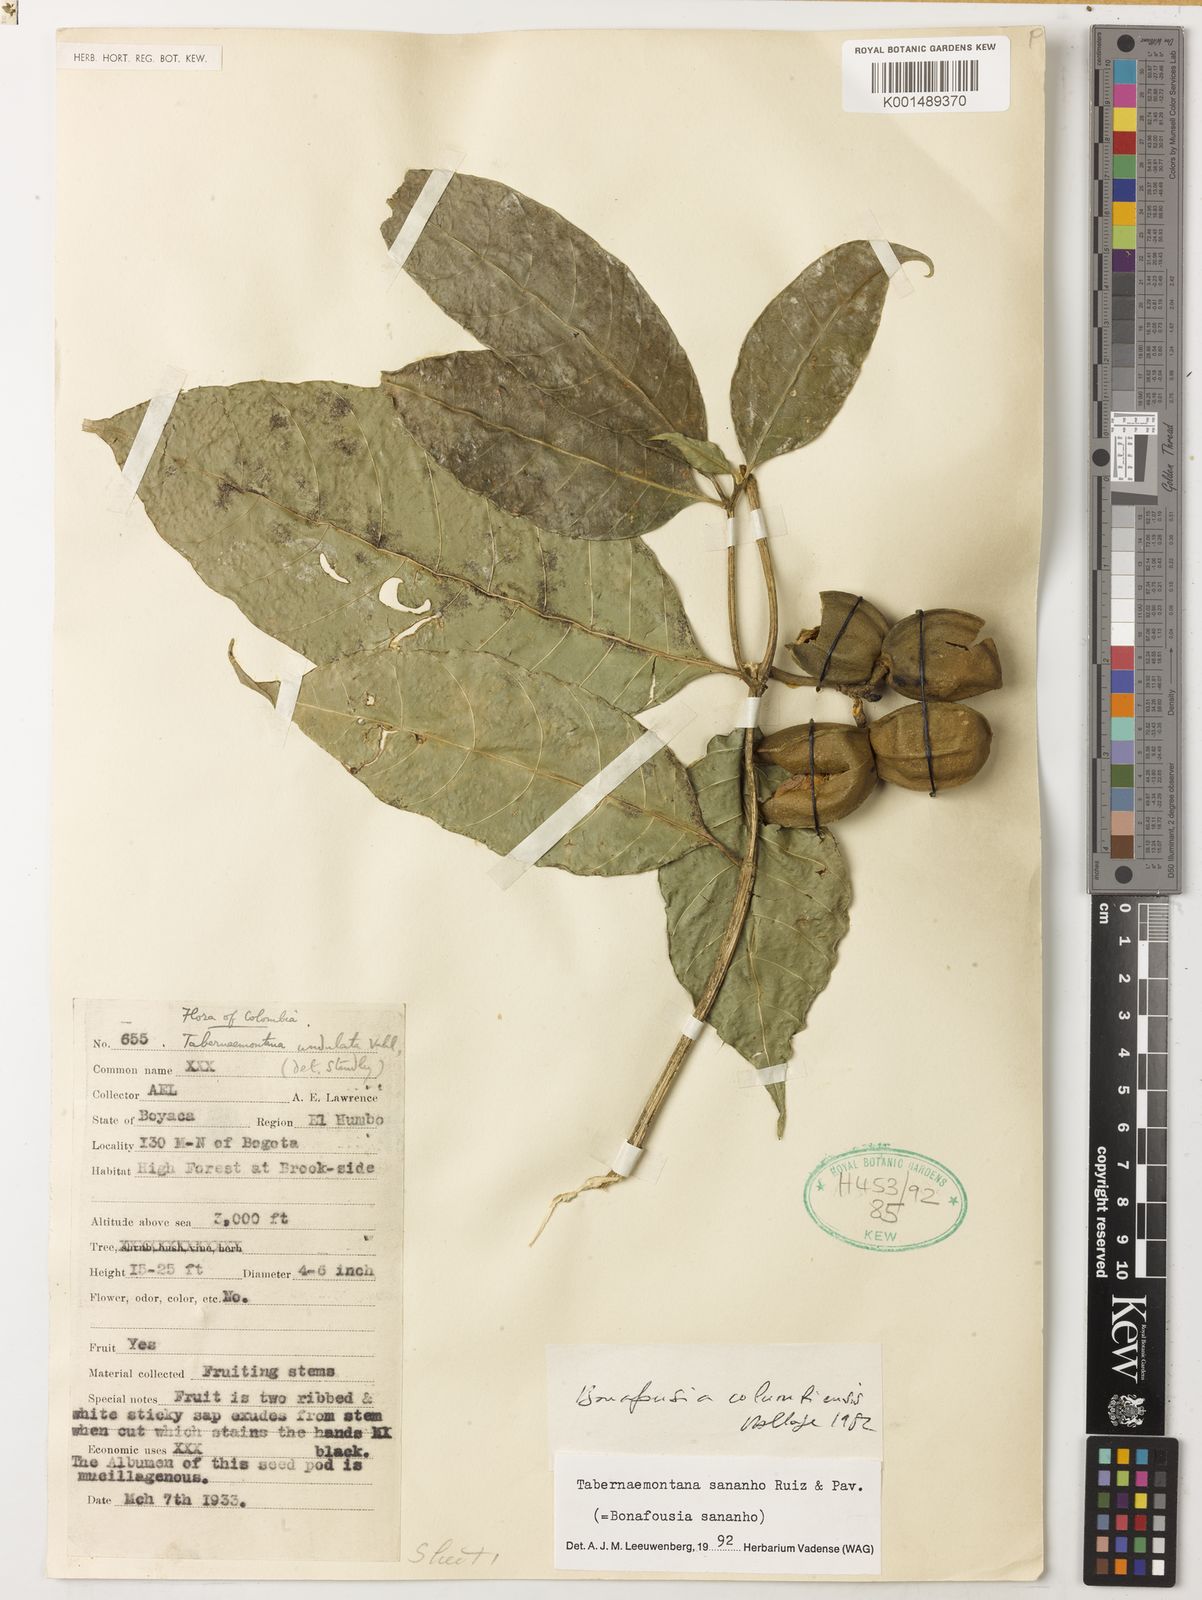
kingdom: Plantae
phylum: Tracheophyta
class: Magnoliopsida
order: Gentianales
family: Apocynaceae
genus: Tabernaemontana
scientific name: Tabernaemontana sananho
